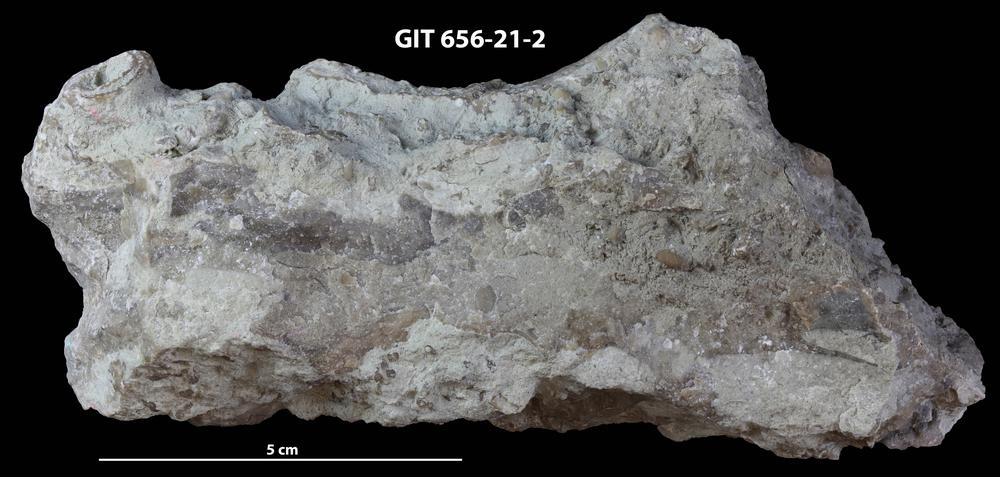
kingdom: Animalia
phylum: Cnidaria
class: Anthozoa
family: Auloporidae
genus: Aulopora
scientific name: Aulopora
